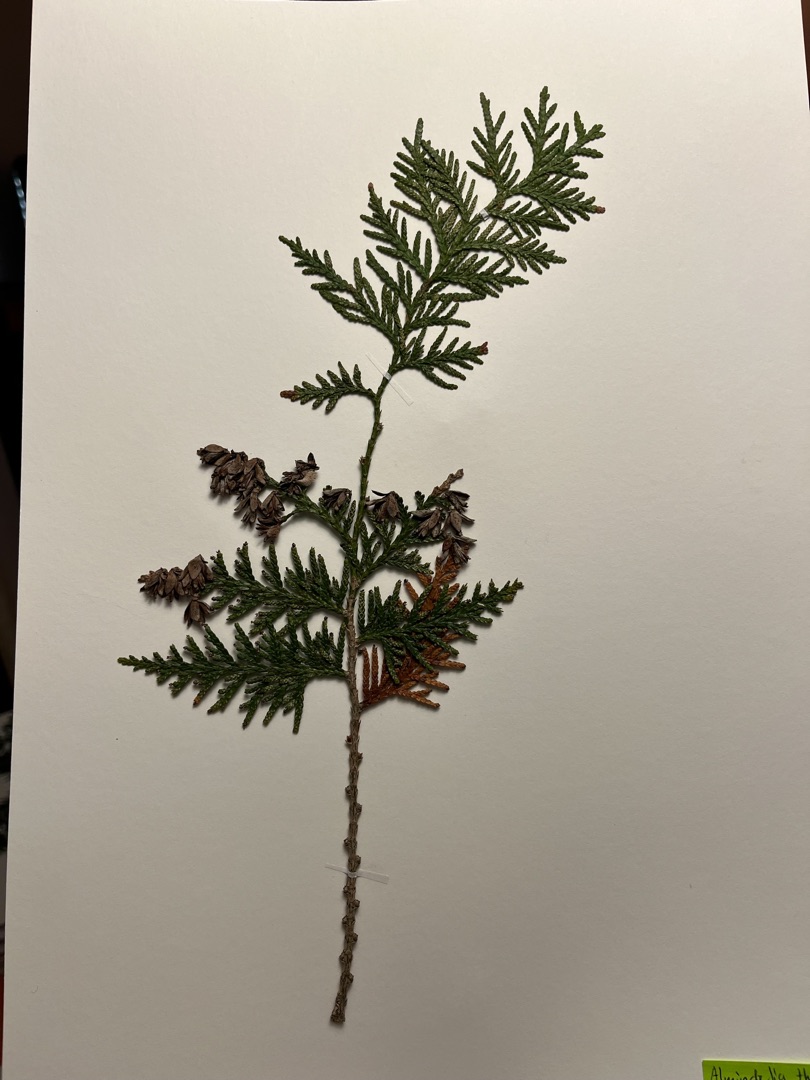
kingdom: Plantae
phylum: Tracheophyta
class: Pinopsida
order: Pinales
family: Cupressaceae
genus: Thuja
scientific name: Thuja occidentalis
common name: Almindelig thuja
